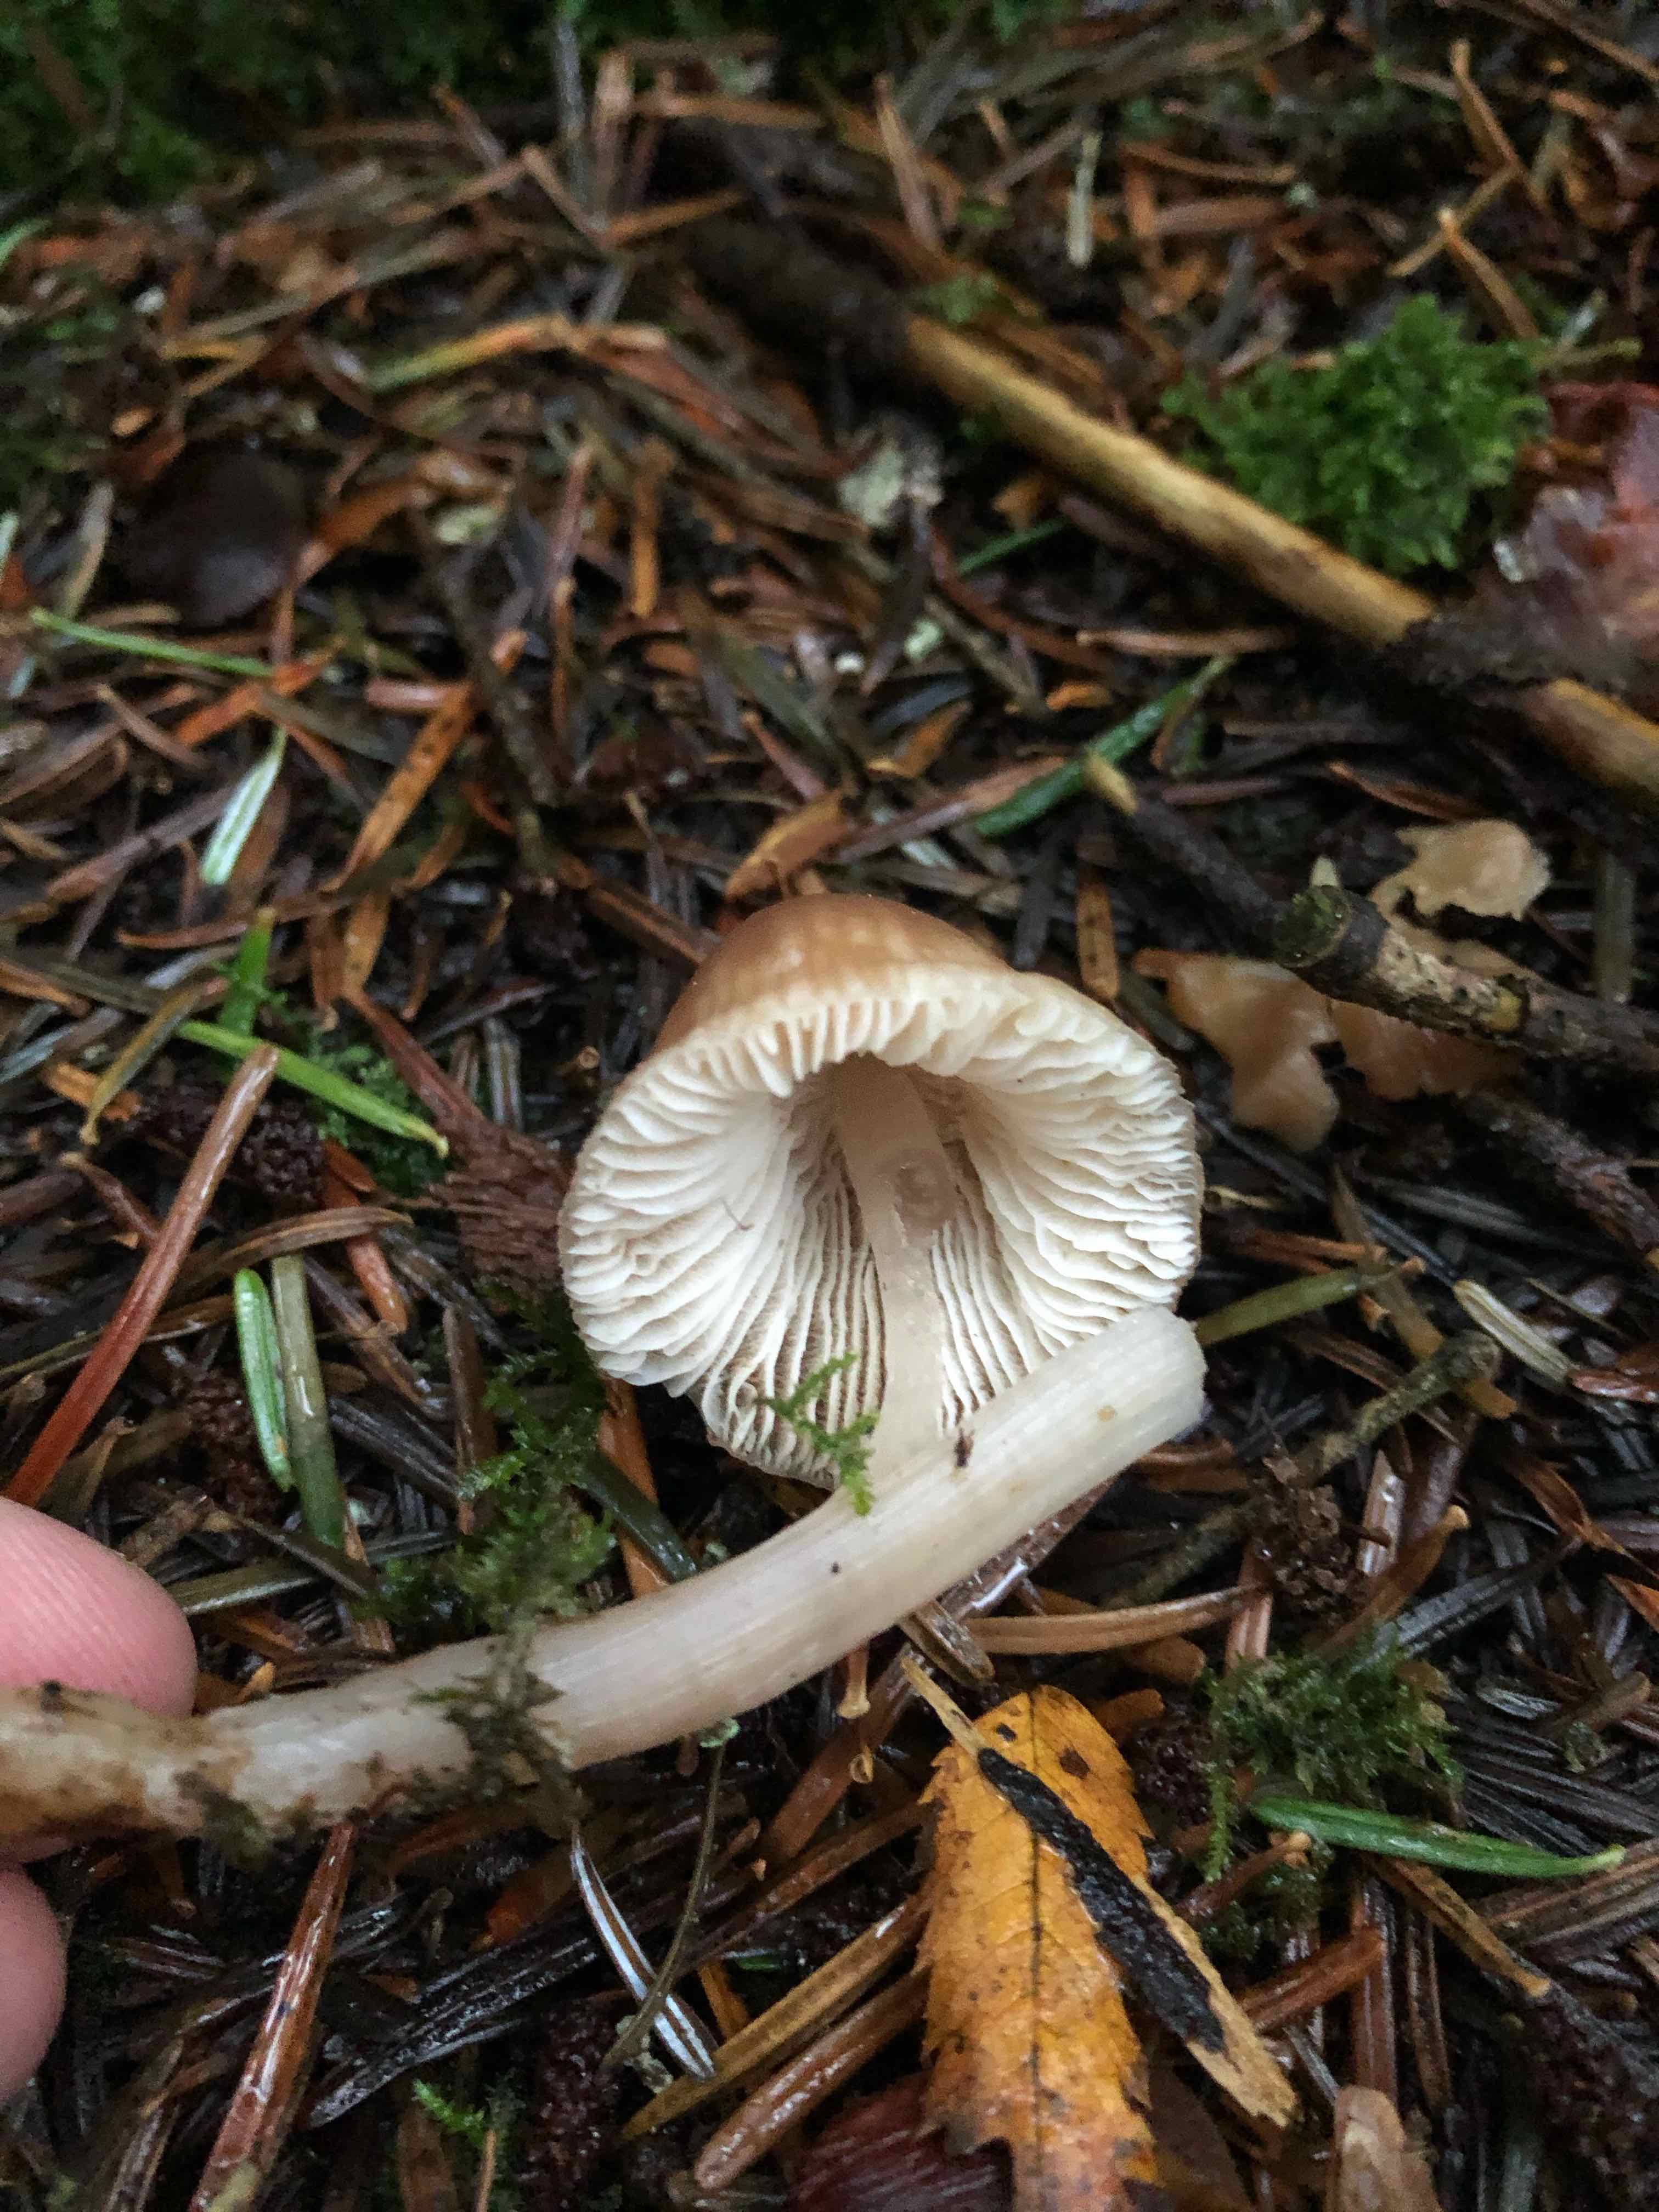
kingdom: Fungi
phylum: Basidiomycota
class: Agaricomycetes
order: Agaricales
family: Mycenaceae
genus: Mycena
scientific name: Mycena
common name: huesvamp
